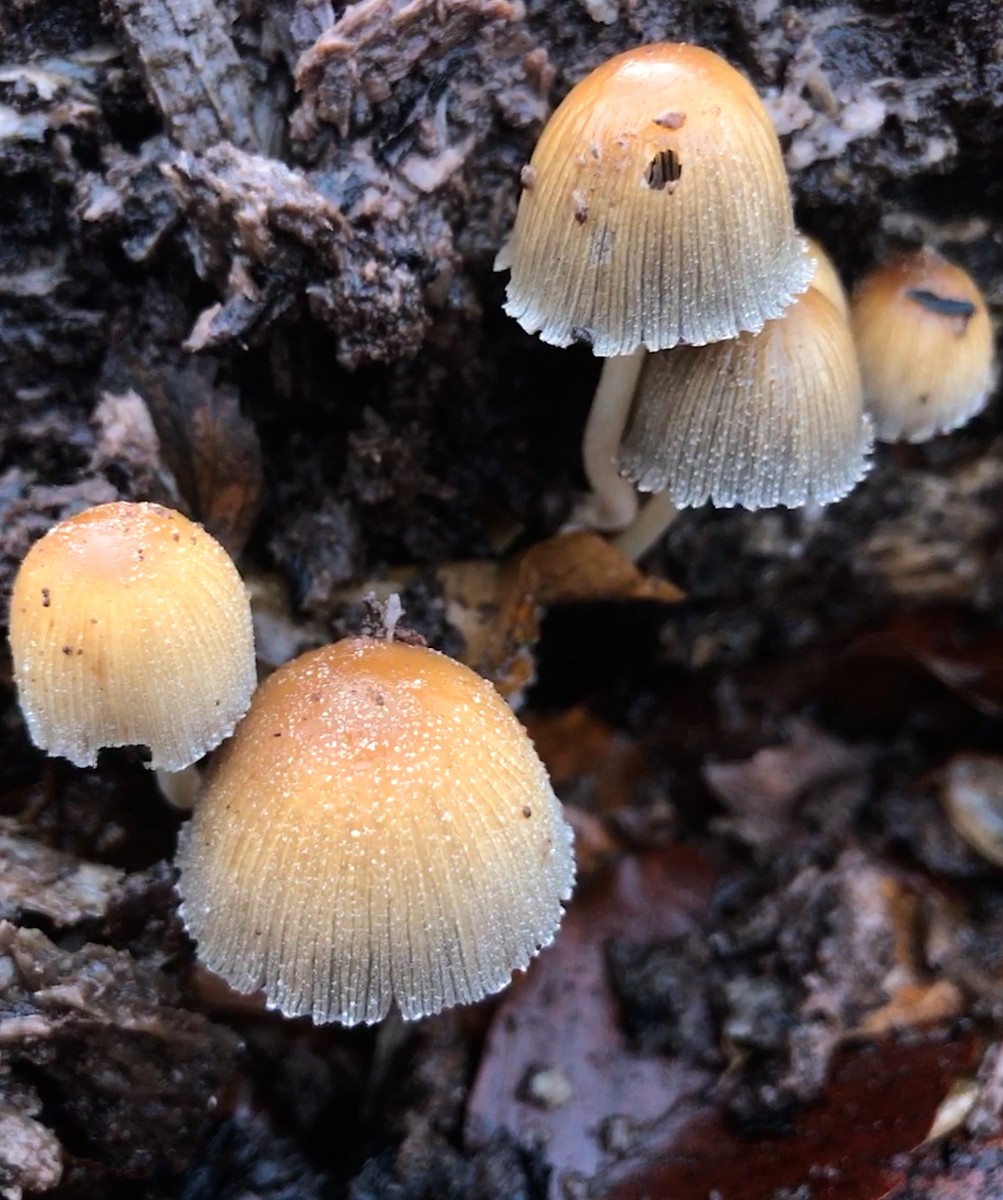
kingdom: Fungi
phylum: Basidiomycota
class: Agaricomycetes
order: Agaricales
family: Psathyrellaceae
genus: Coprinellus
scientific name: Coprinellus micaceus
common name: glimmer-blækhat
